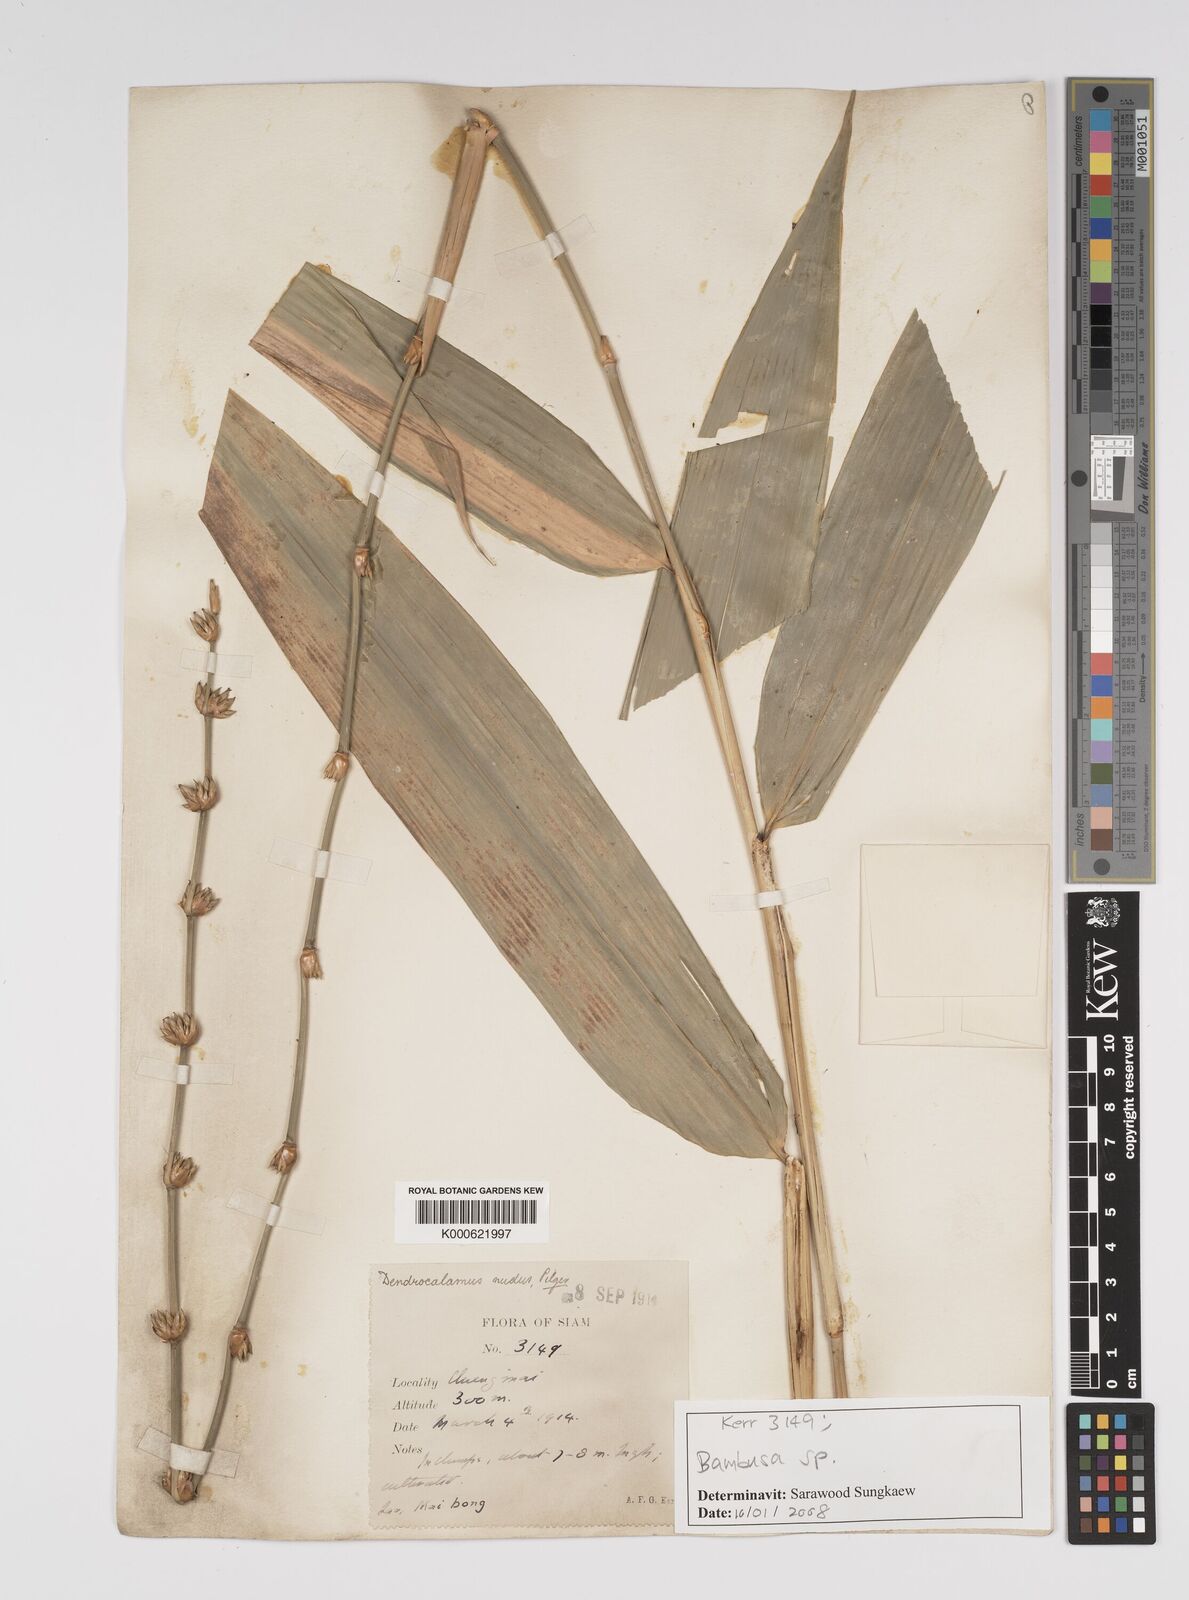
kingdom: Plantae
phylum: Tracheophyta
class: Liliopsida
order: Poales
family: Poaceae
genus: Bambusa
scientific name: Bambusa
